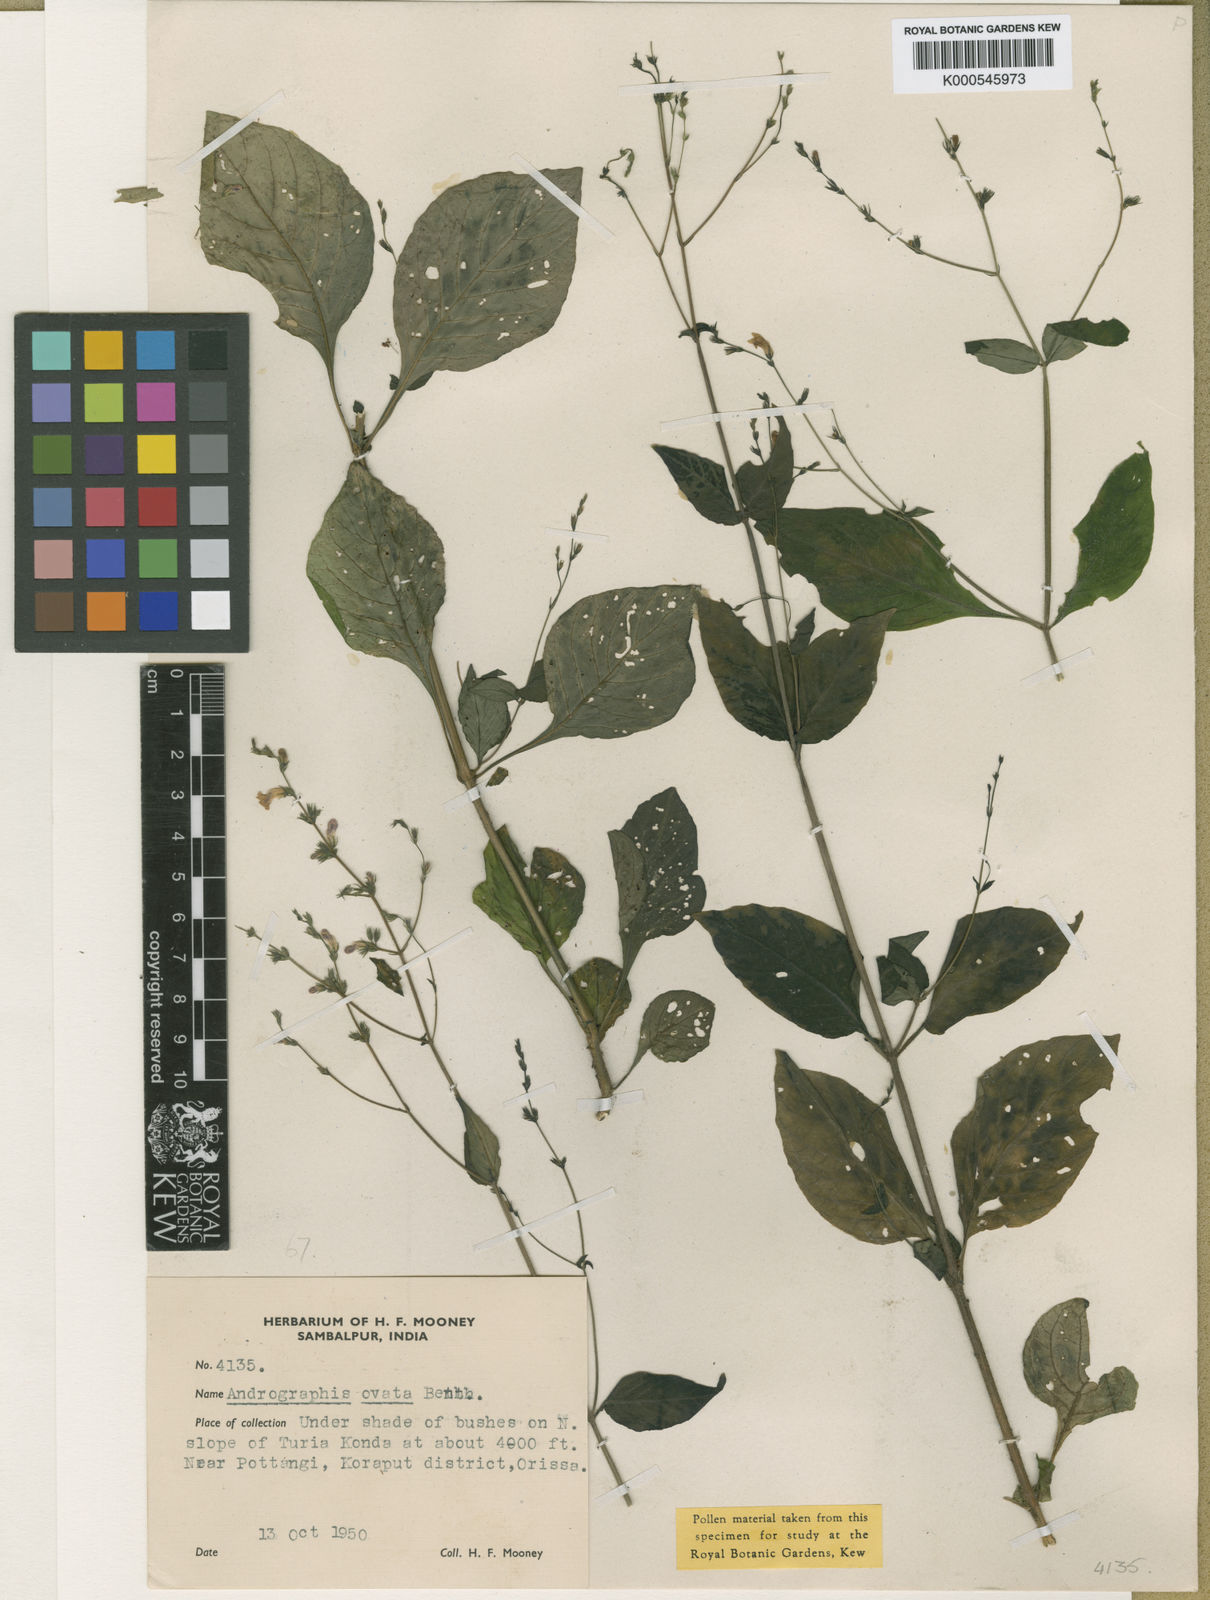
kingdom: Plantae
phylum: Tracheophyta
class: Magnoliopsida
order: Lamiales
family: Acanthaceae
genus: Andrographis
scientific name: Andrographis
